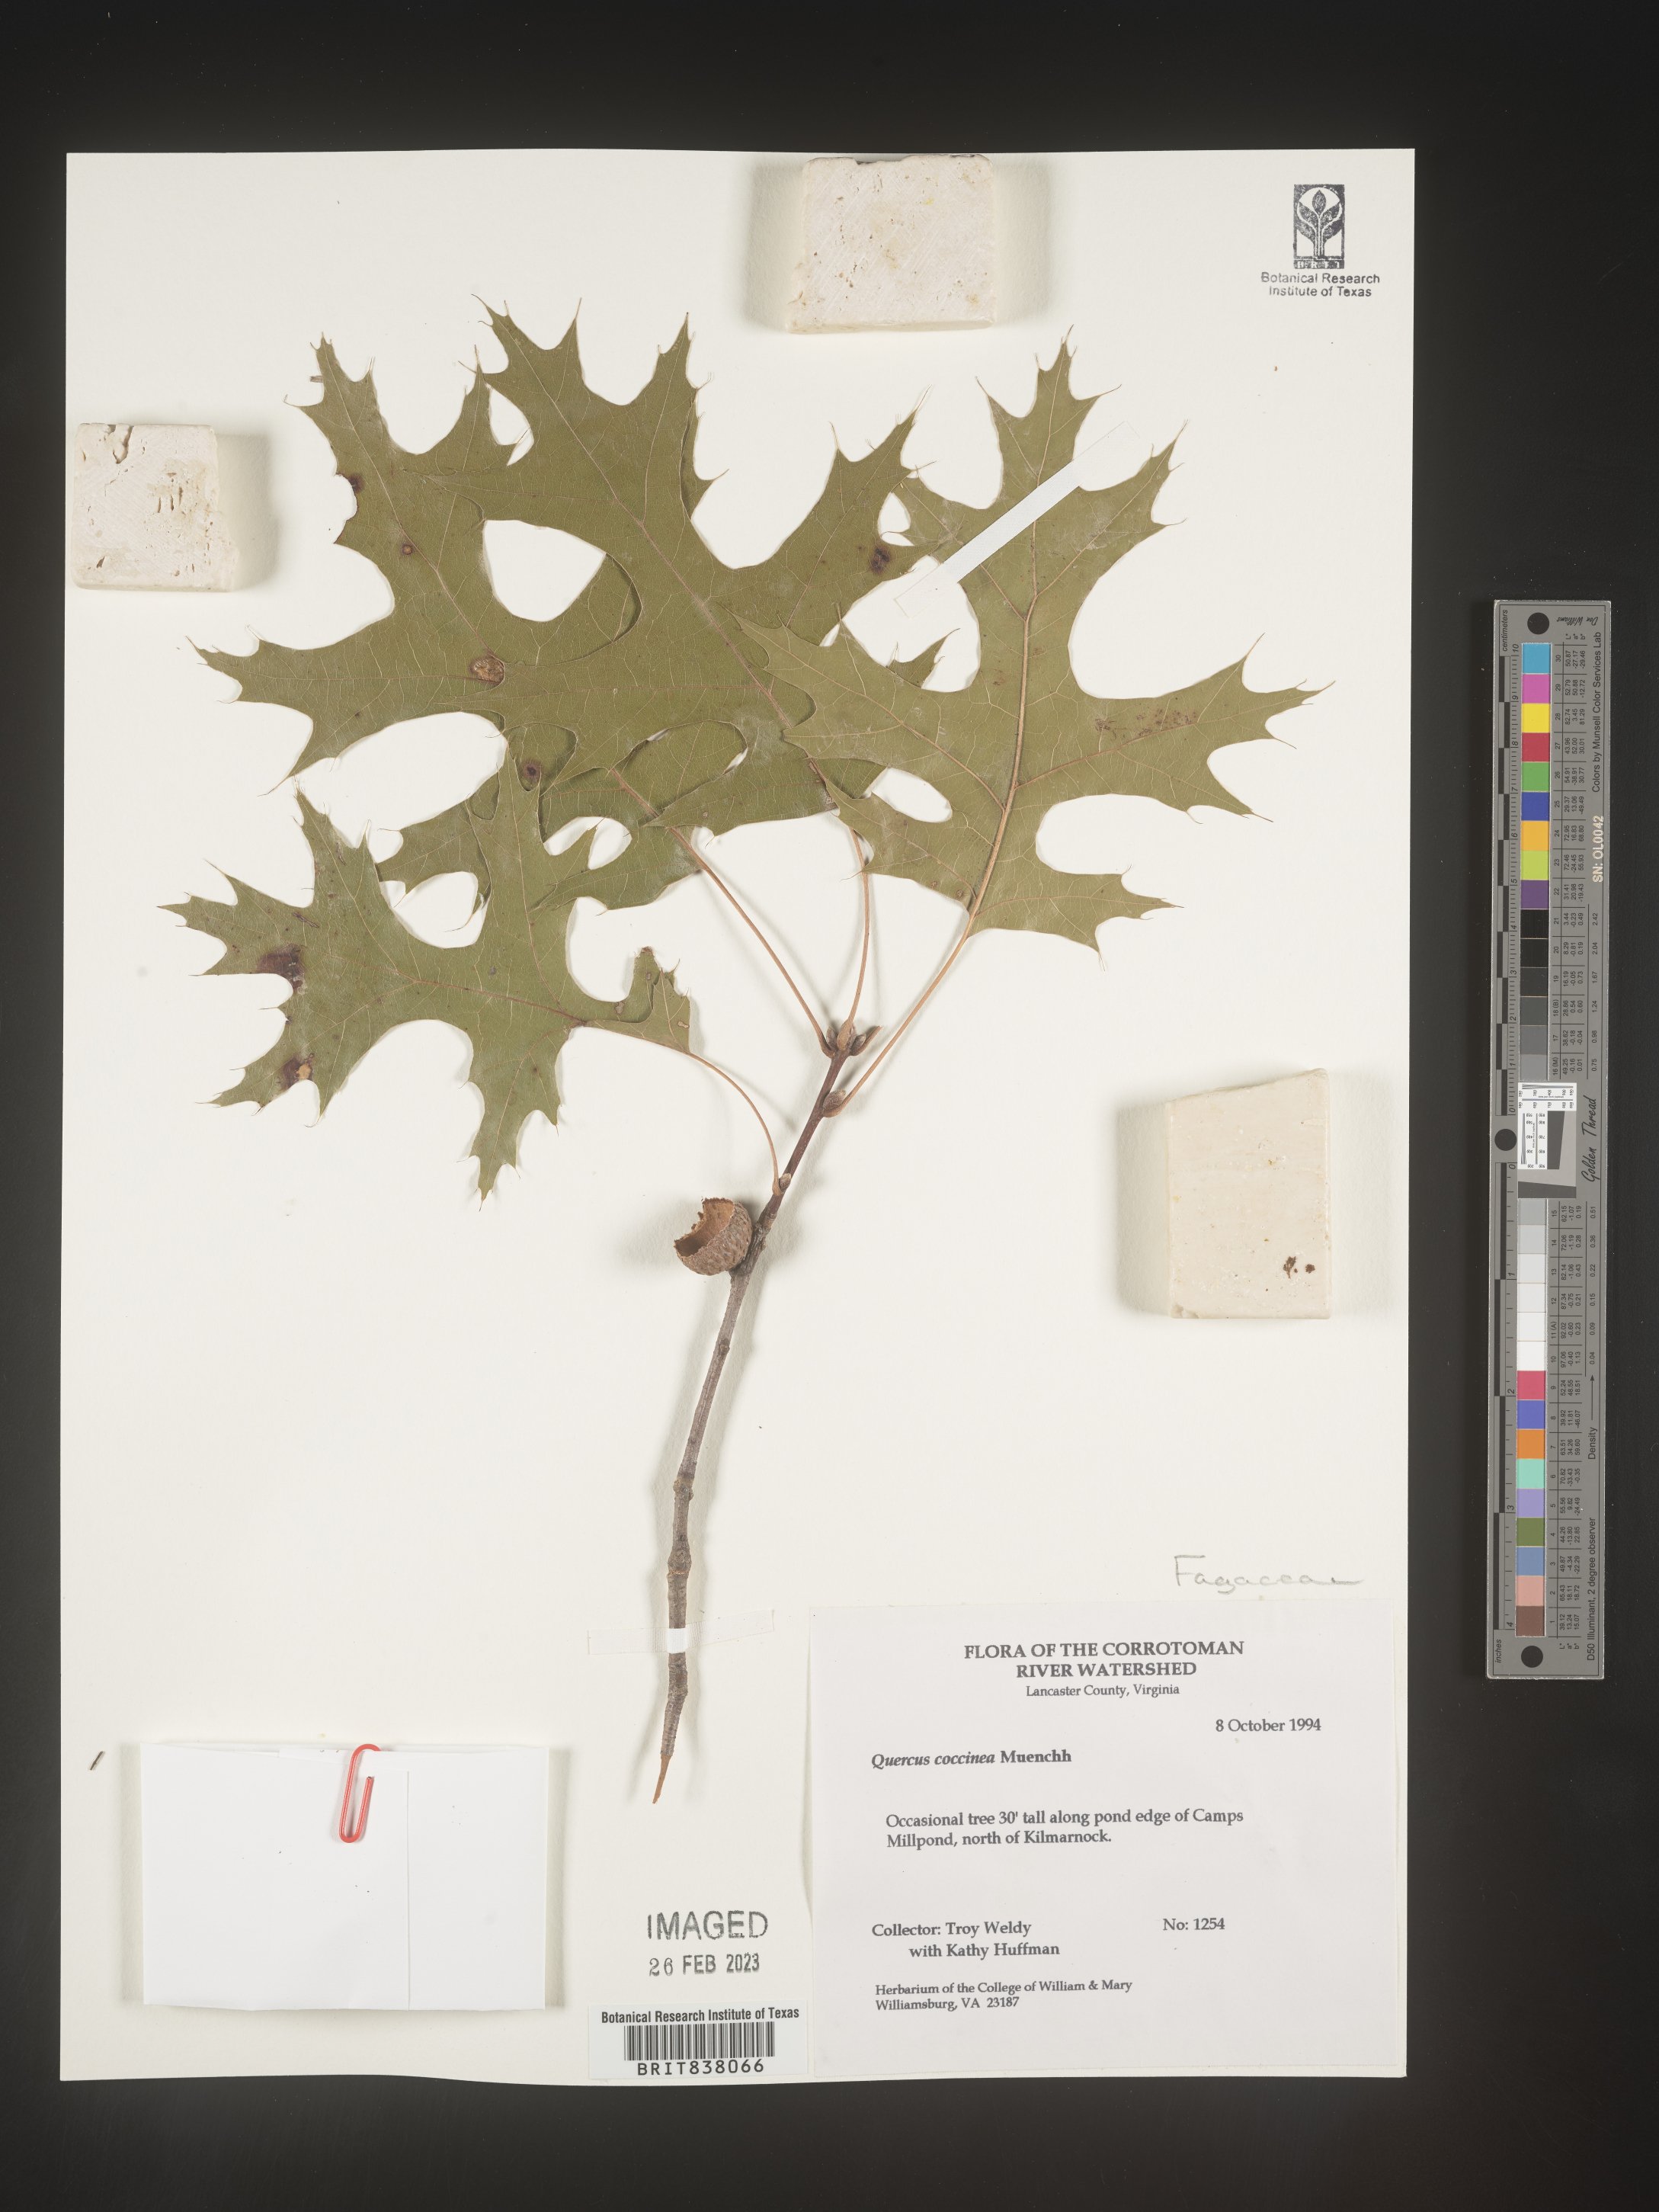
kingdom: Plantae
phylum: Tracheophyta
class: Magnoliopsida
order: Fagales
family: Fagaceae
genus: Quercus
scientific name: Quercus coccinea
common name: Scarlet oak
